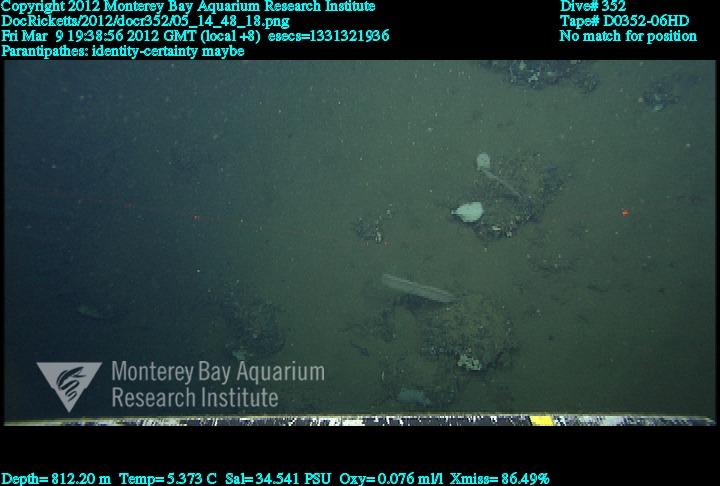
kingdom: Animalia
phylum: Cnidaria
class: Anthozoa
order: Antipatharia
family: Schizopathidae
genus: Parantipathes
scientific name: Parantipathes
